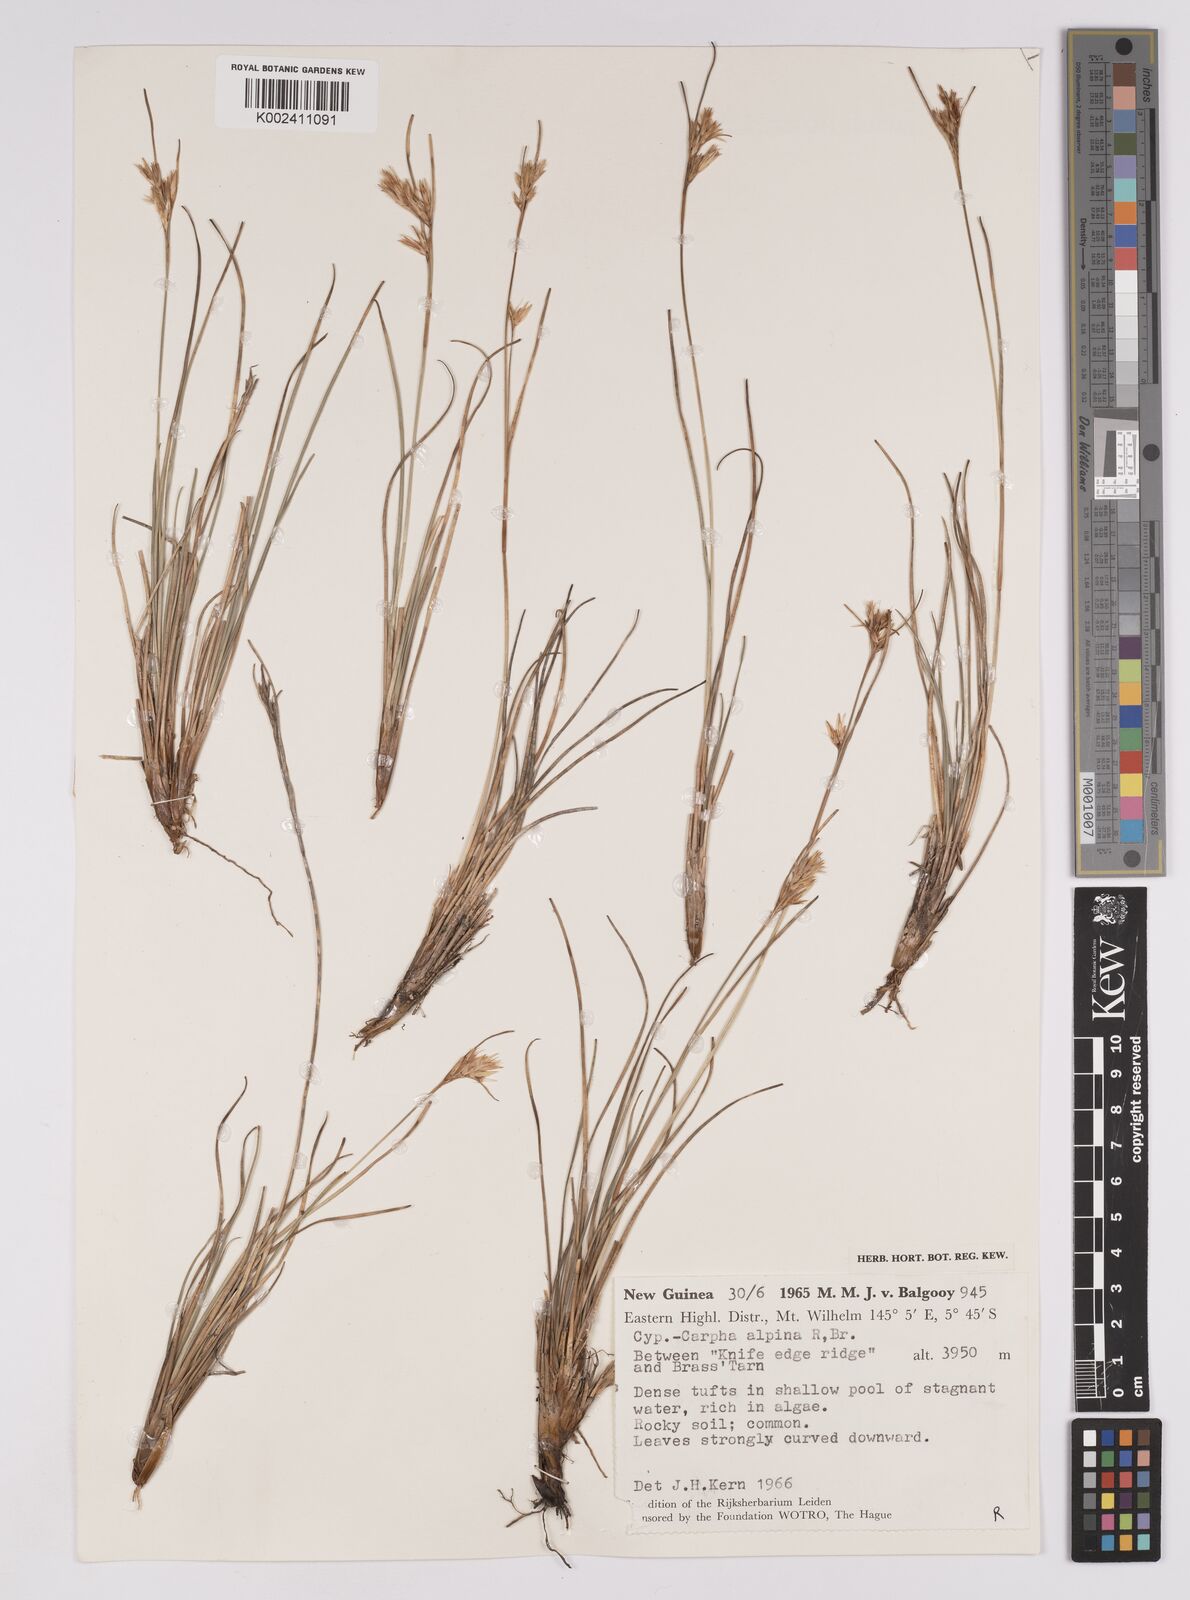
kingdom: Plantae
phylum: Tracheophyta
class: Liliopsida
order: Poales
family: Cyperaceae
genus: Carpha
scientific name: Carpha alpina
